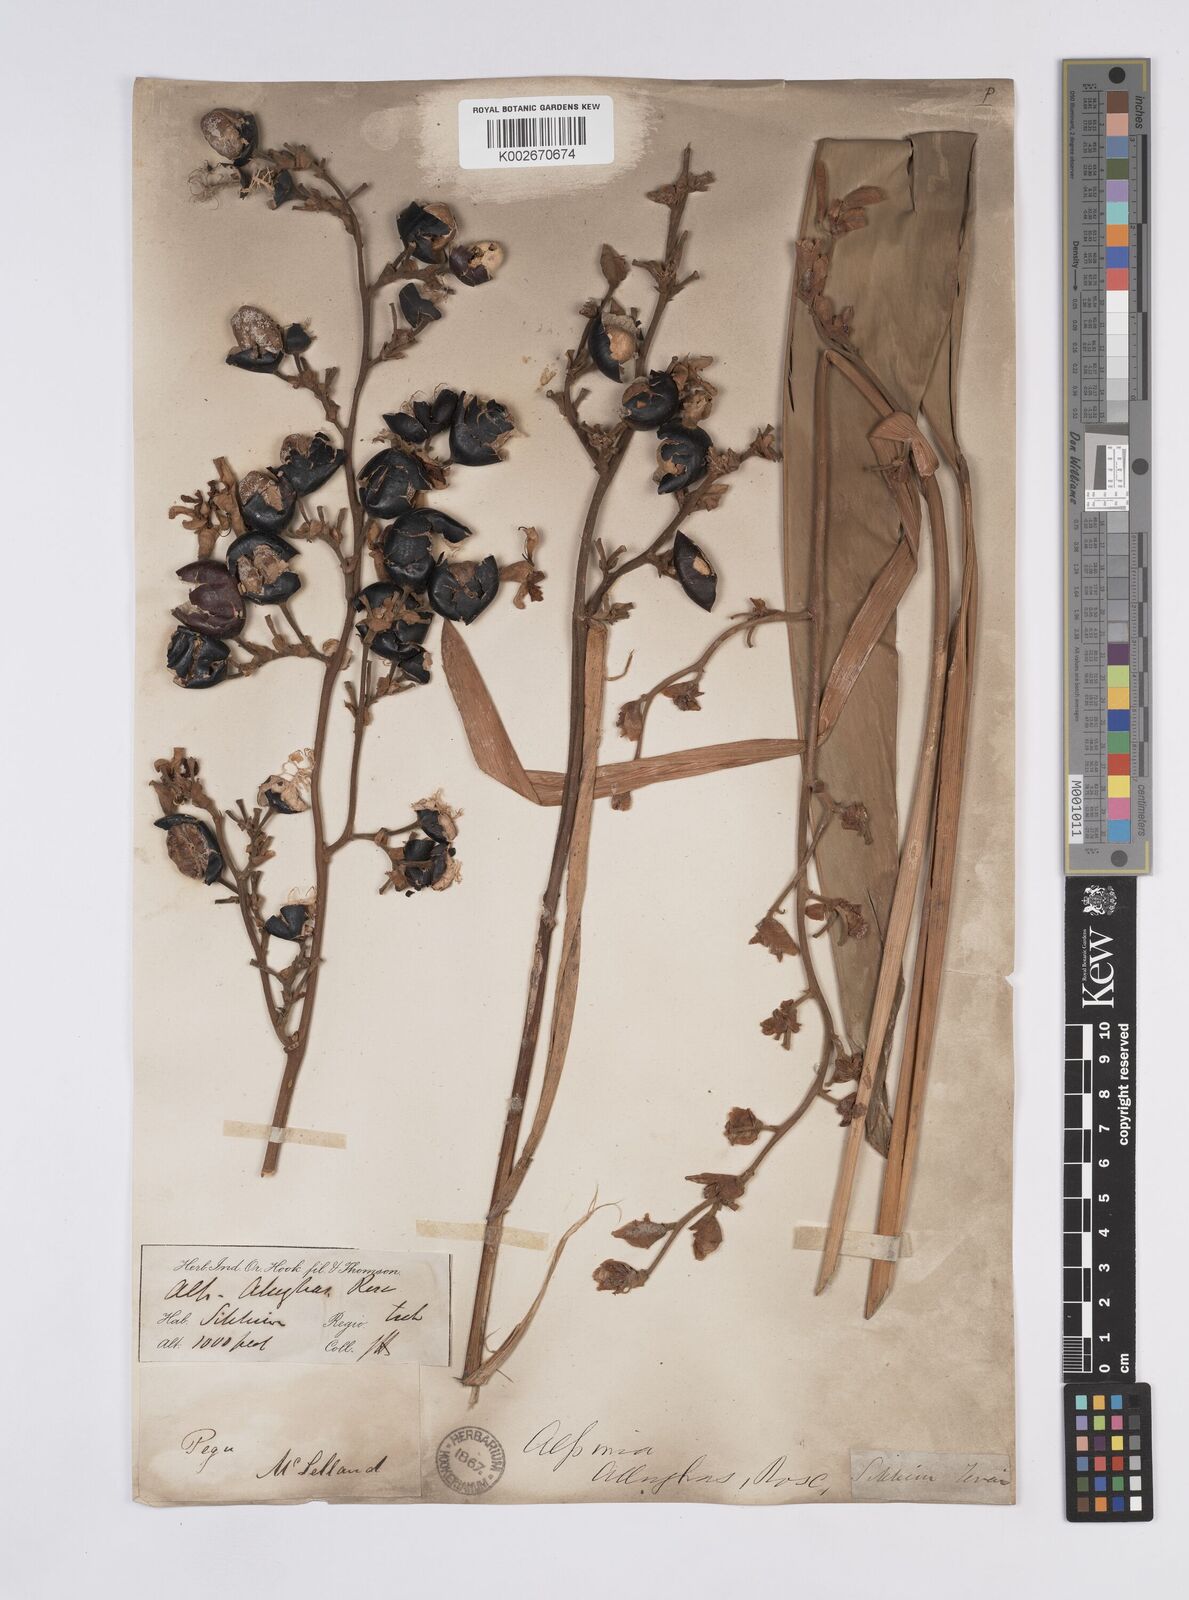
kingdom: Plantae
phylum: Tracheophyta
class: Liliopsida
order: Zingiberales
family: Zingiberaceae
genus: Alpinia
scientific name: Alpinia nigra
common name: Black fruited galanga
